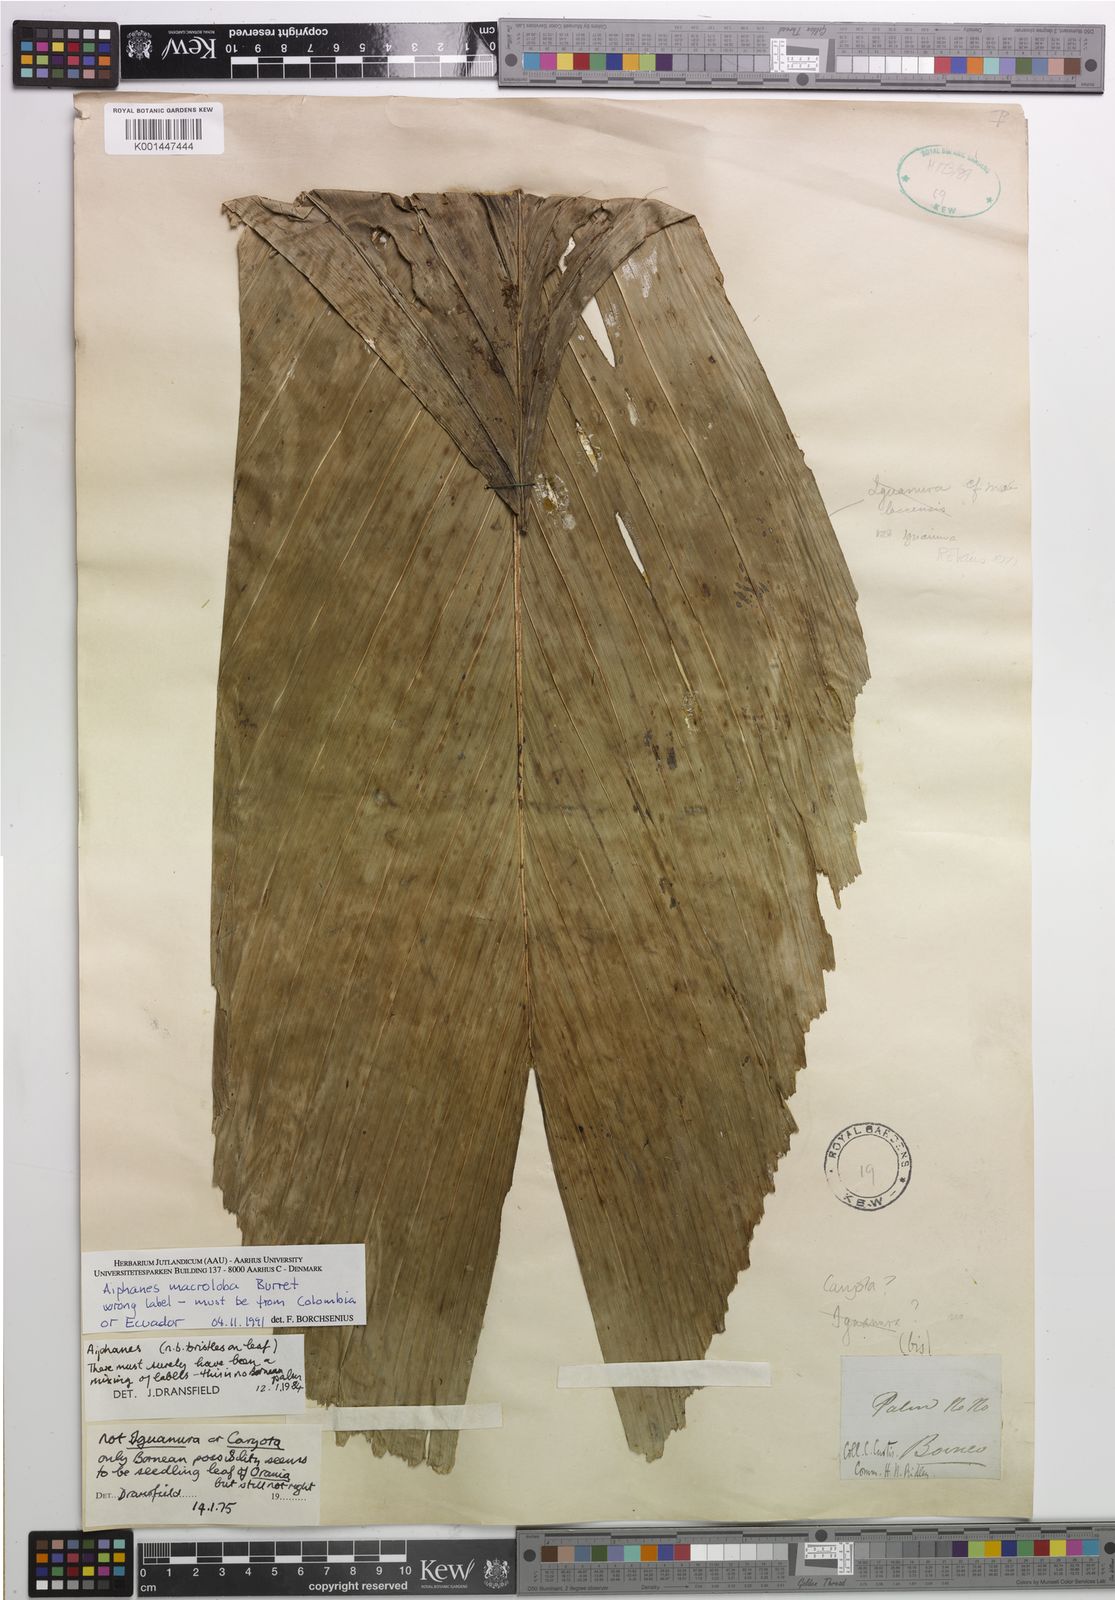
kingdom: Plantae
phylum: Tracheophyta
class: Liliopsida
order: Arecales
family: Arecaceae
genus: Aiphanes
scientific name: Aiphanes macroloba
